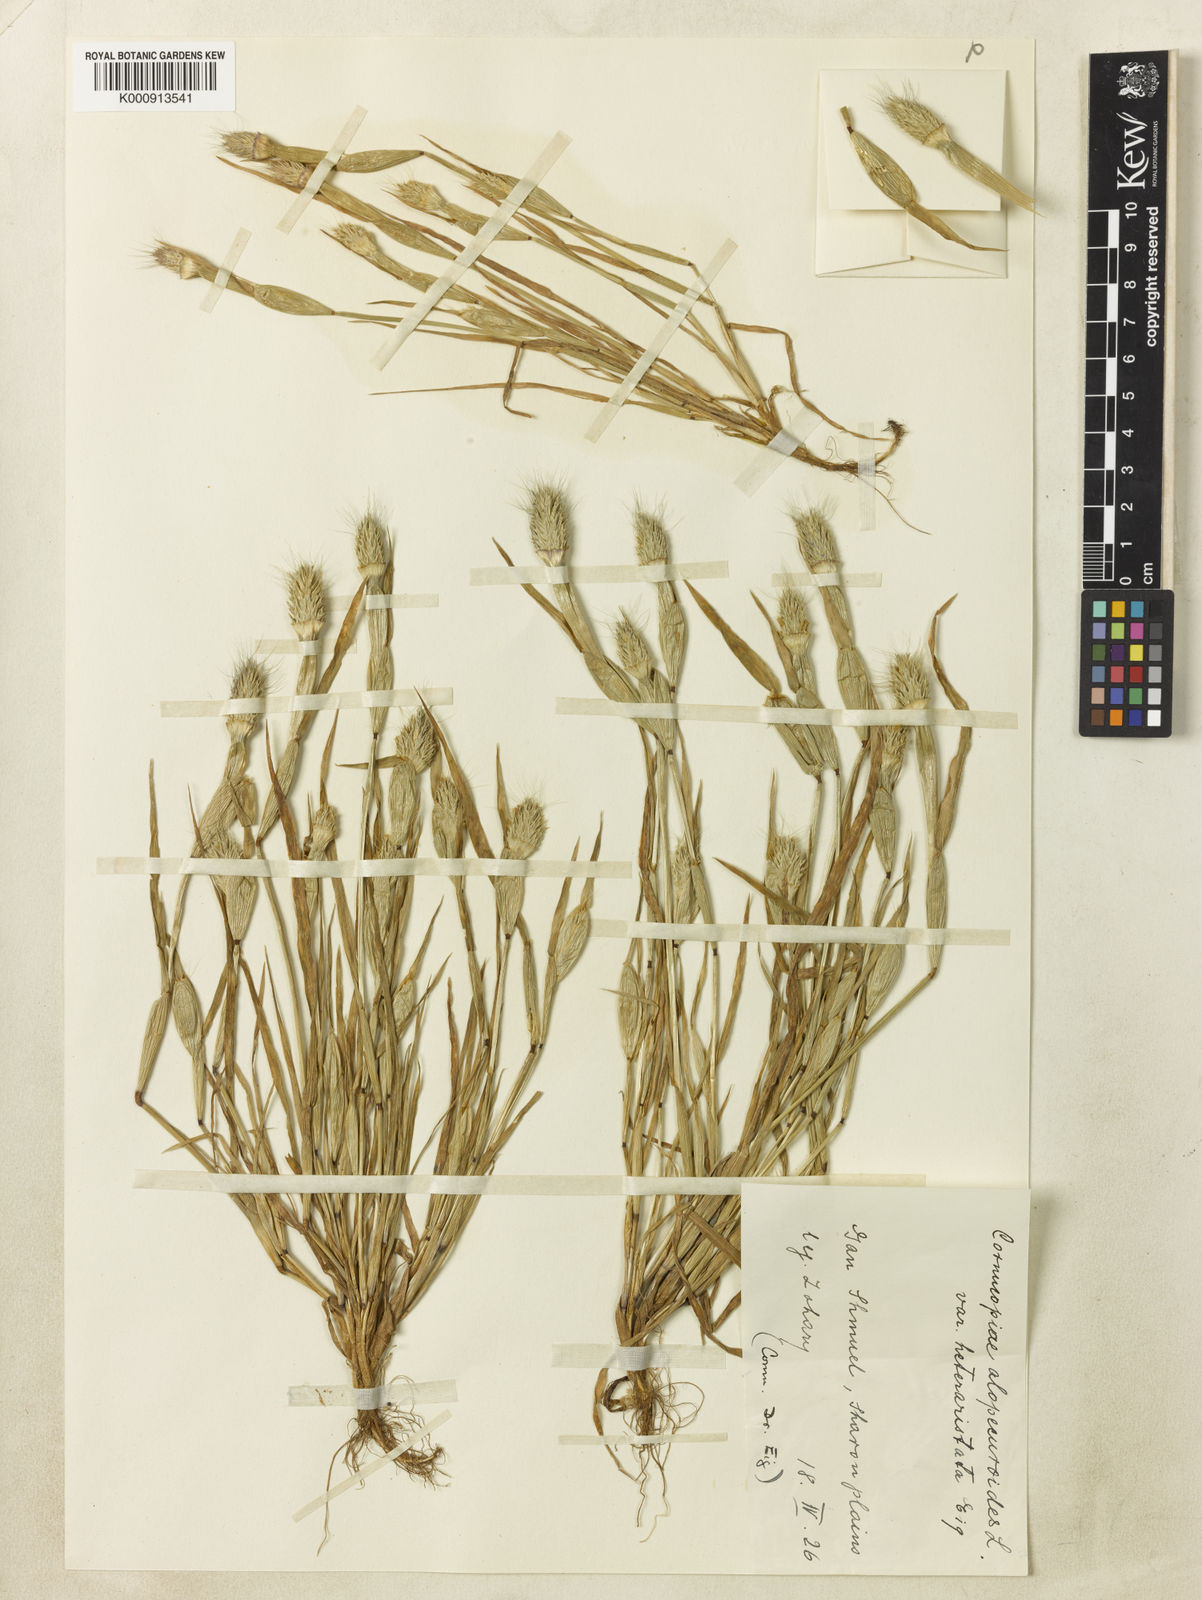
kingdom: Plantae
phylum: Tracheophyta
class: Liliopsida
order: Poales
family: Poaceae
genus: Cornucopiae
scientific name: Cornucopiae alopecuroides
